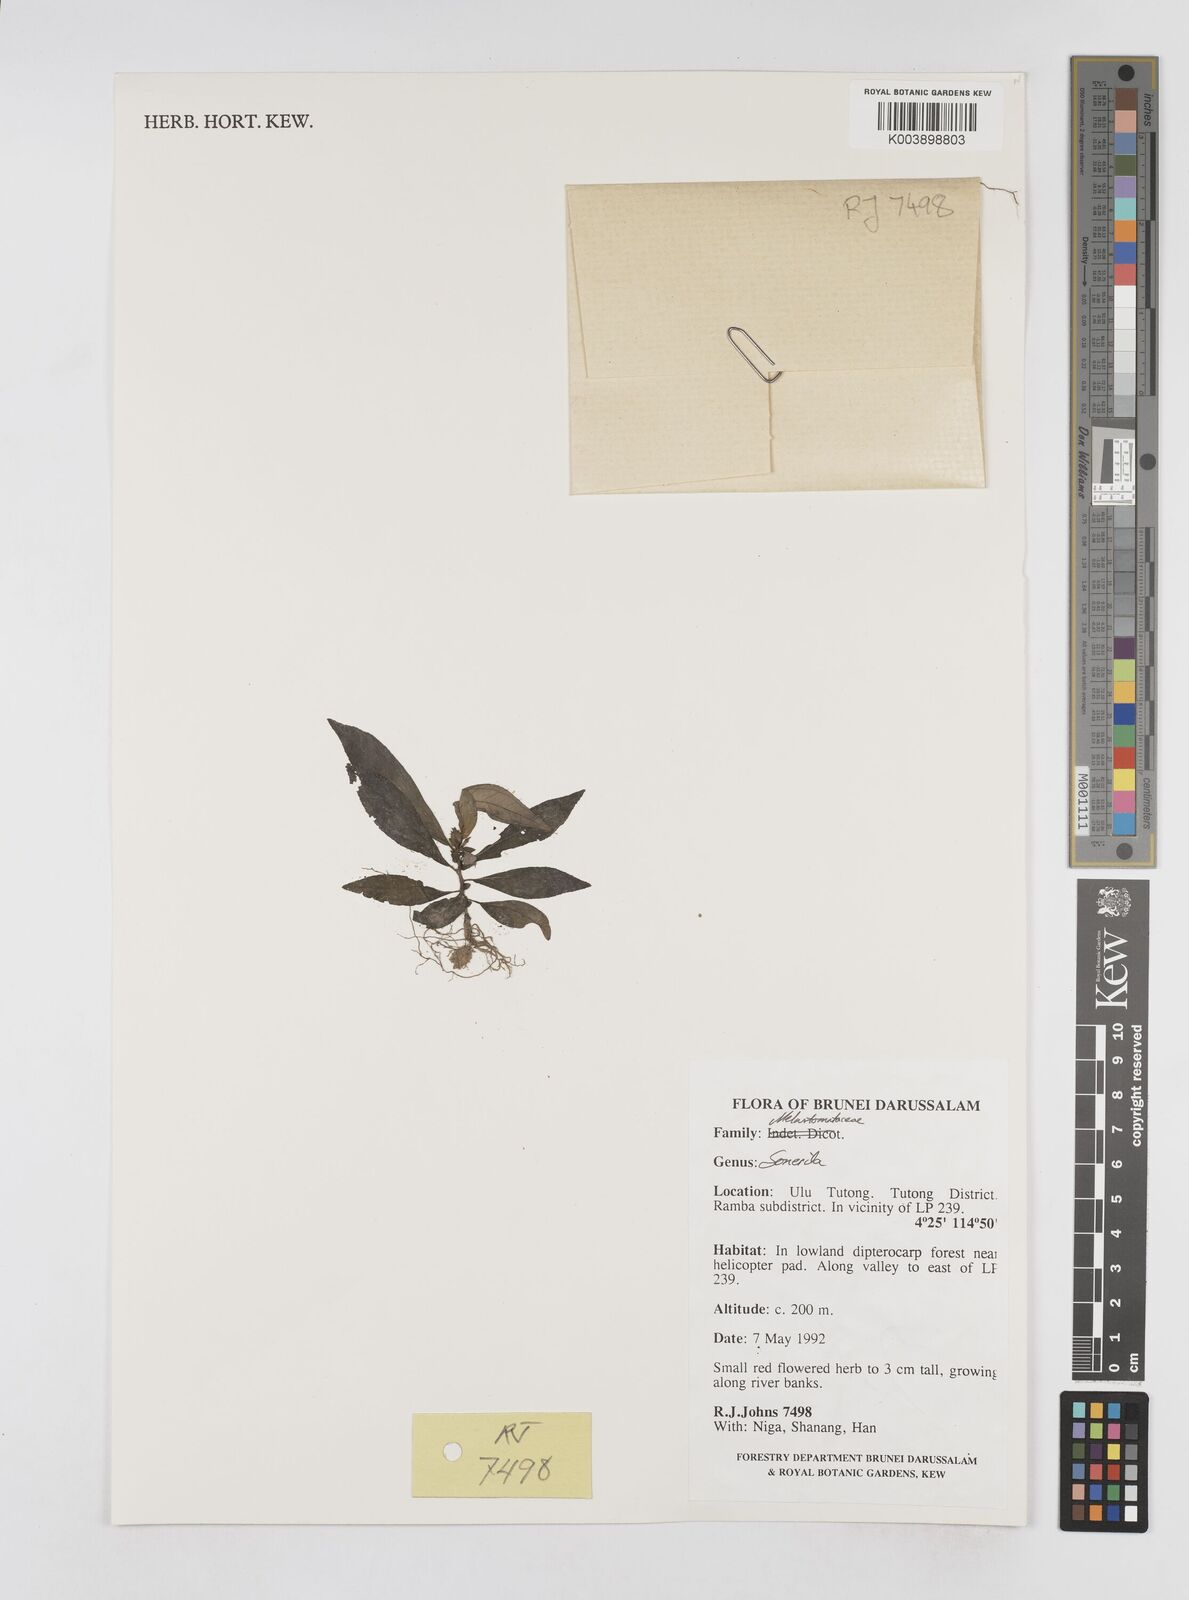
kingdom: Plantae
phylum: Tracheophyta
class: Magnoliopsida
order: Myrtales
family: Melastomataceae
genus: Sonerila
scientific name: Sonerila
